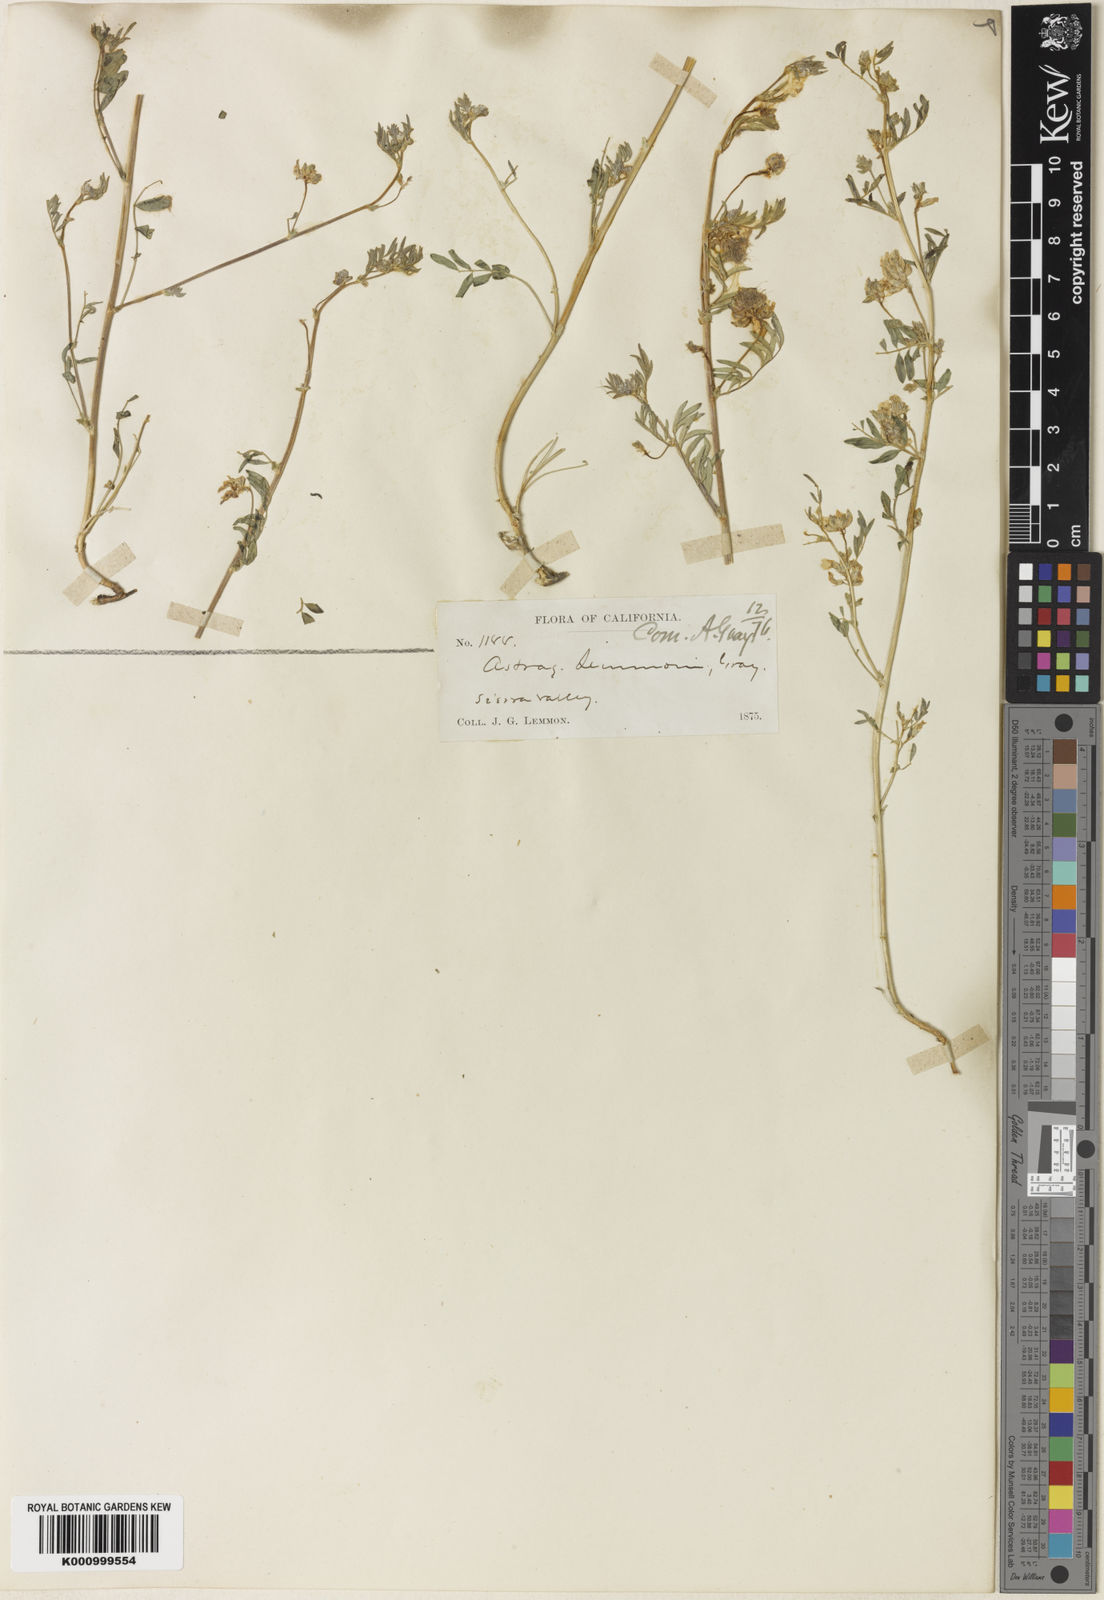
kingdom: Plantae
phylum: Tracheophyta
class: Magnoliopsida
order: Fabales
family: Fabaceae
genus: Astragalus
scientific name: Astragalus lemmonii
